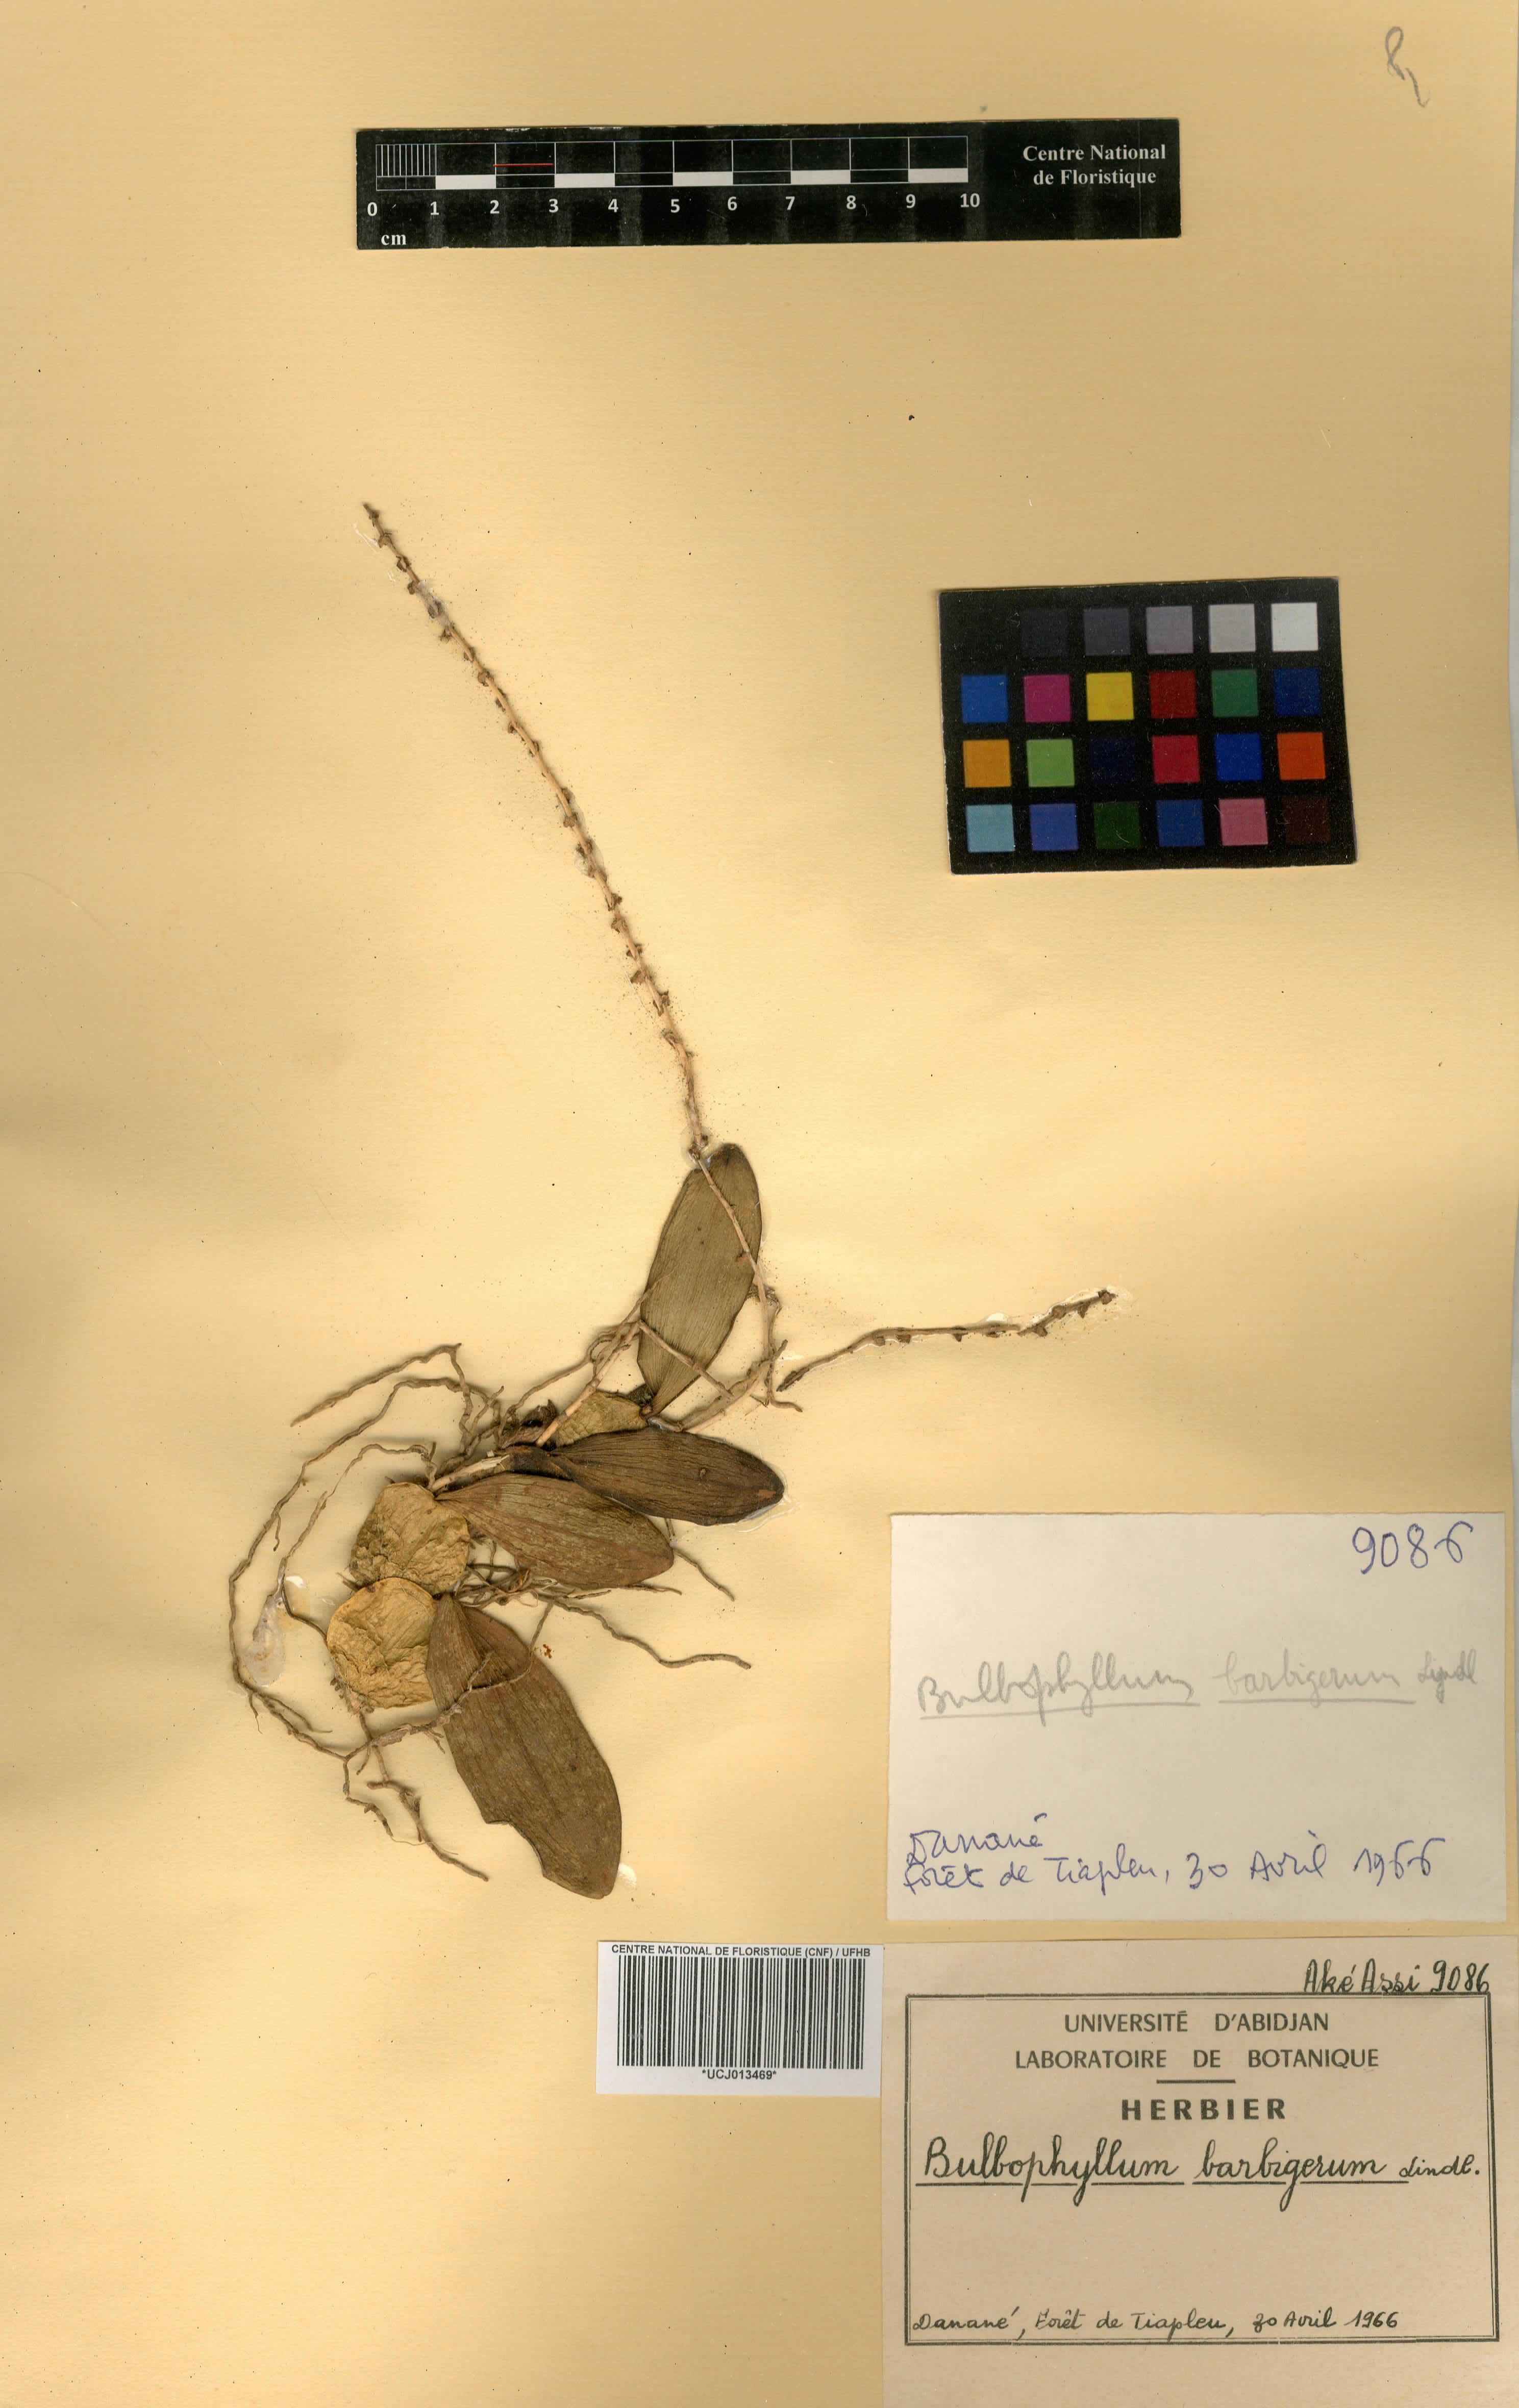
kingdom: Plantae
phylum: Tracheophyta
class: Liliopsida
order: Asparagales
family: Orchidaceae
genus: Bulbophyllum
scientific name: Bulbophyllum barbigerum
